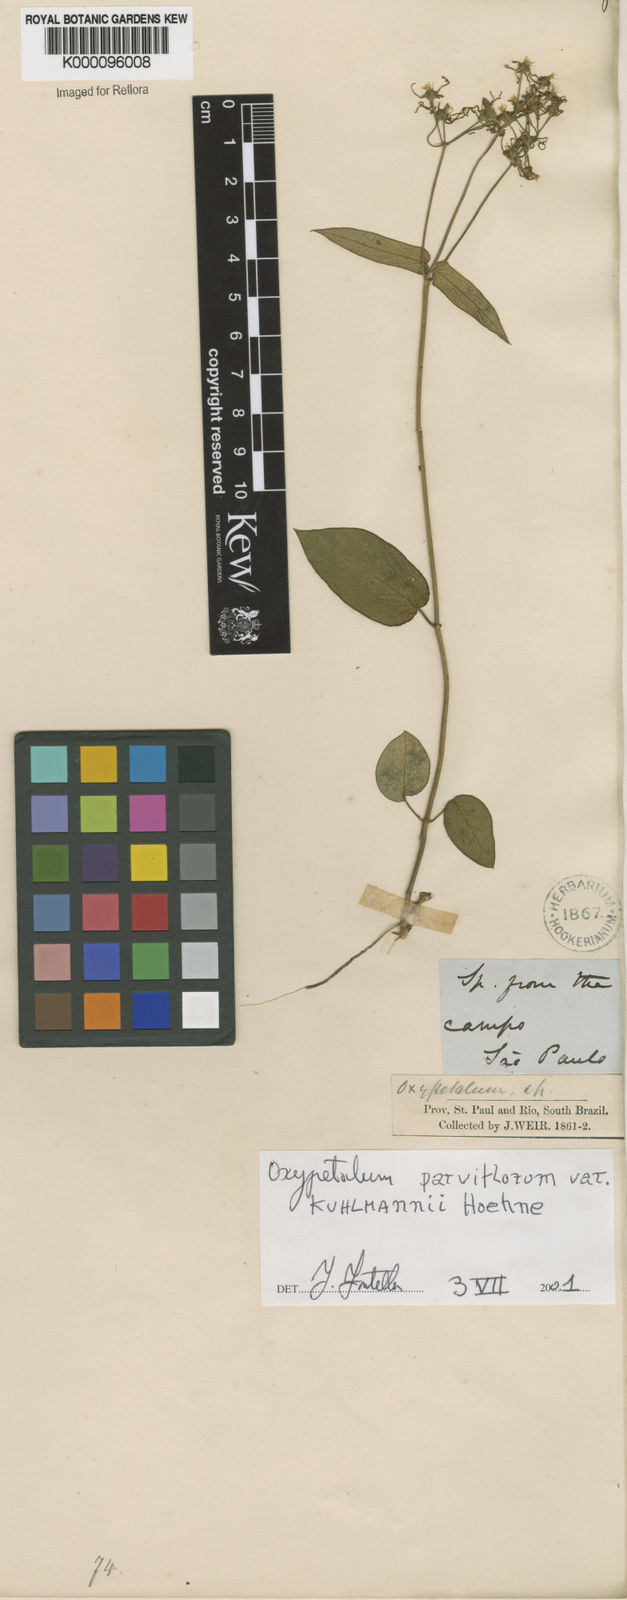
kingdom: Plantae
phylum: Tracheophyta
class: Magnoliopsida
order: Gentianales
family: Apocynaceae
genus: Oxypetalum
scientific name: Oxypetalum parviflorum
